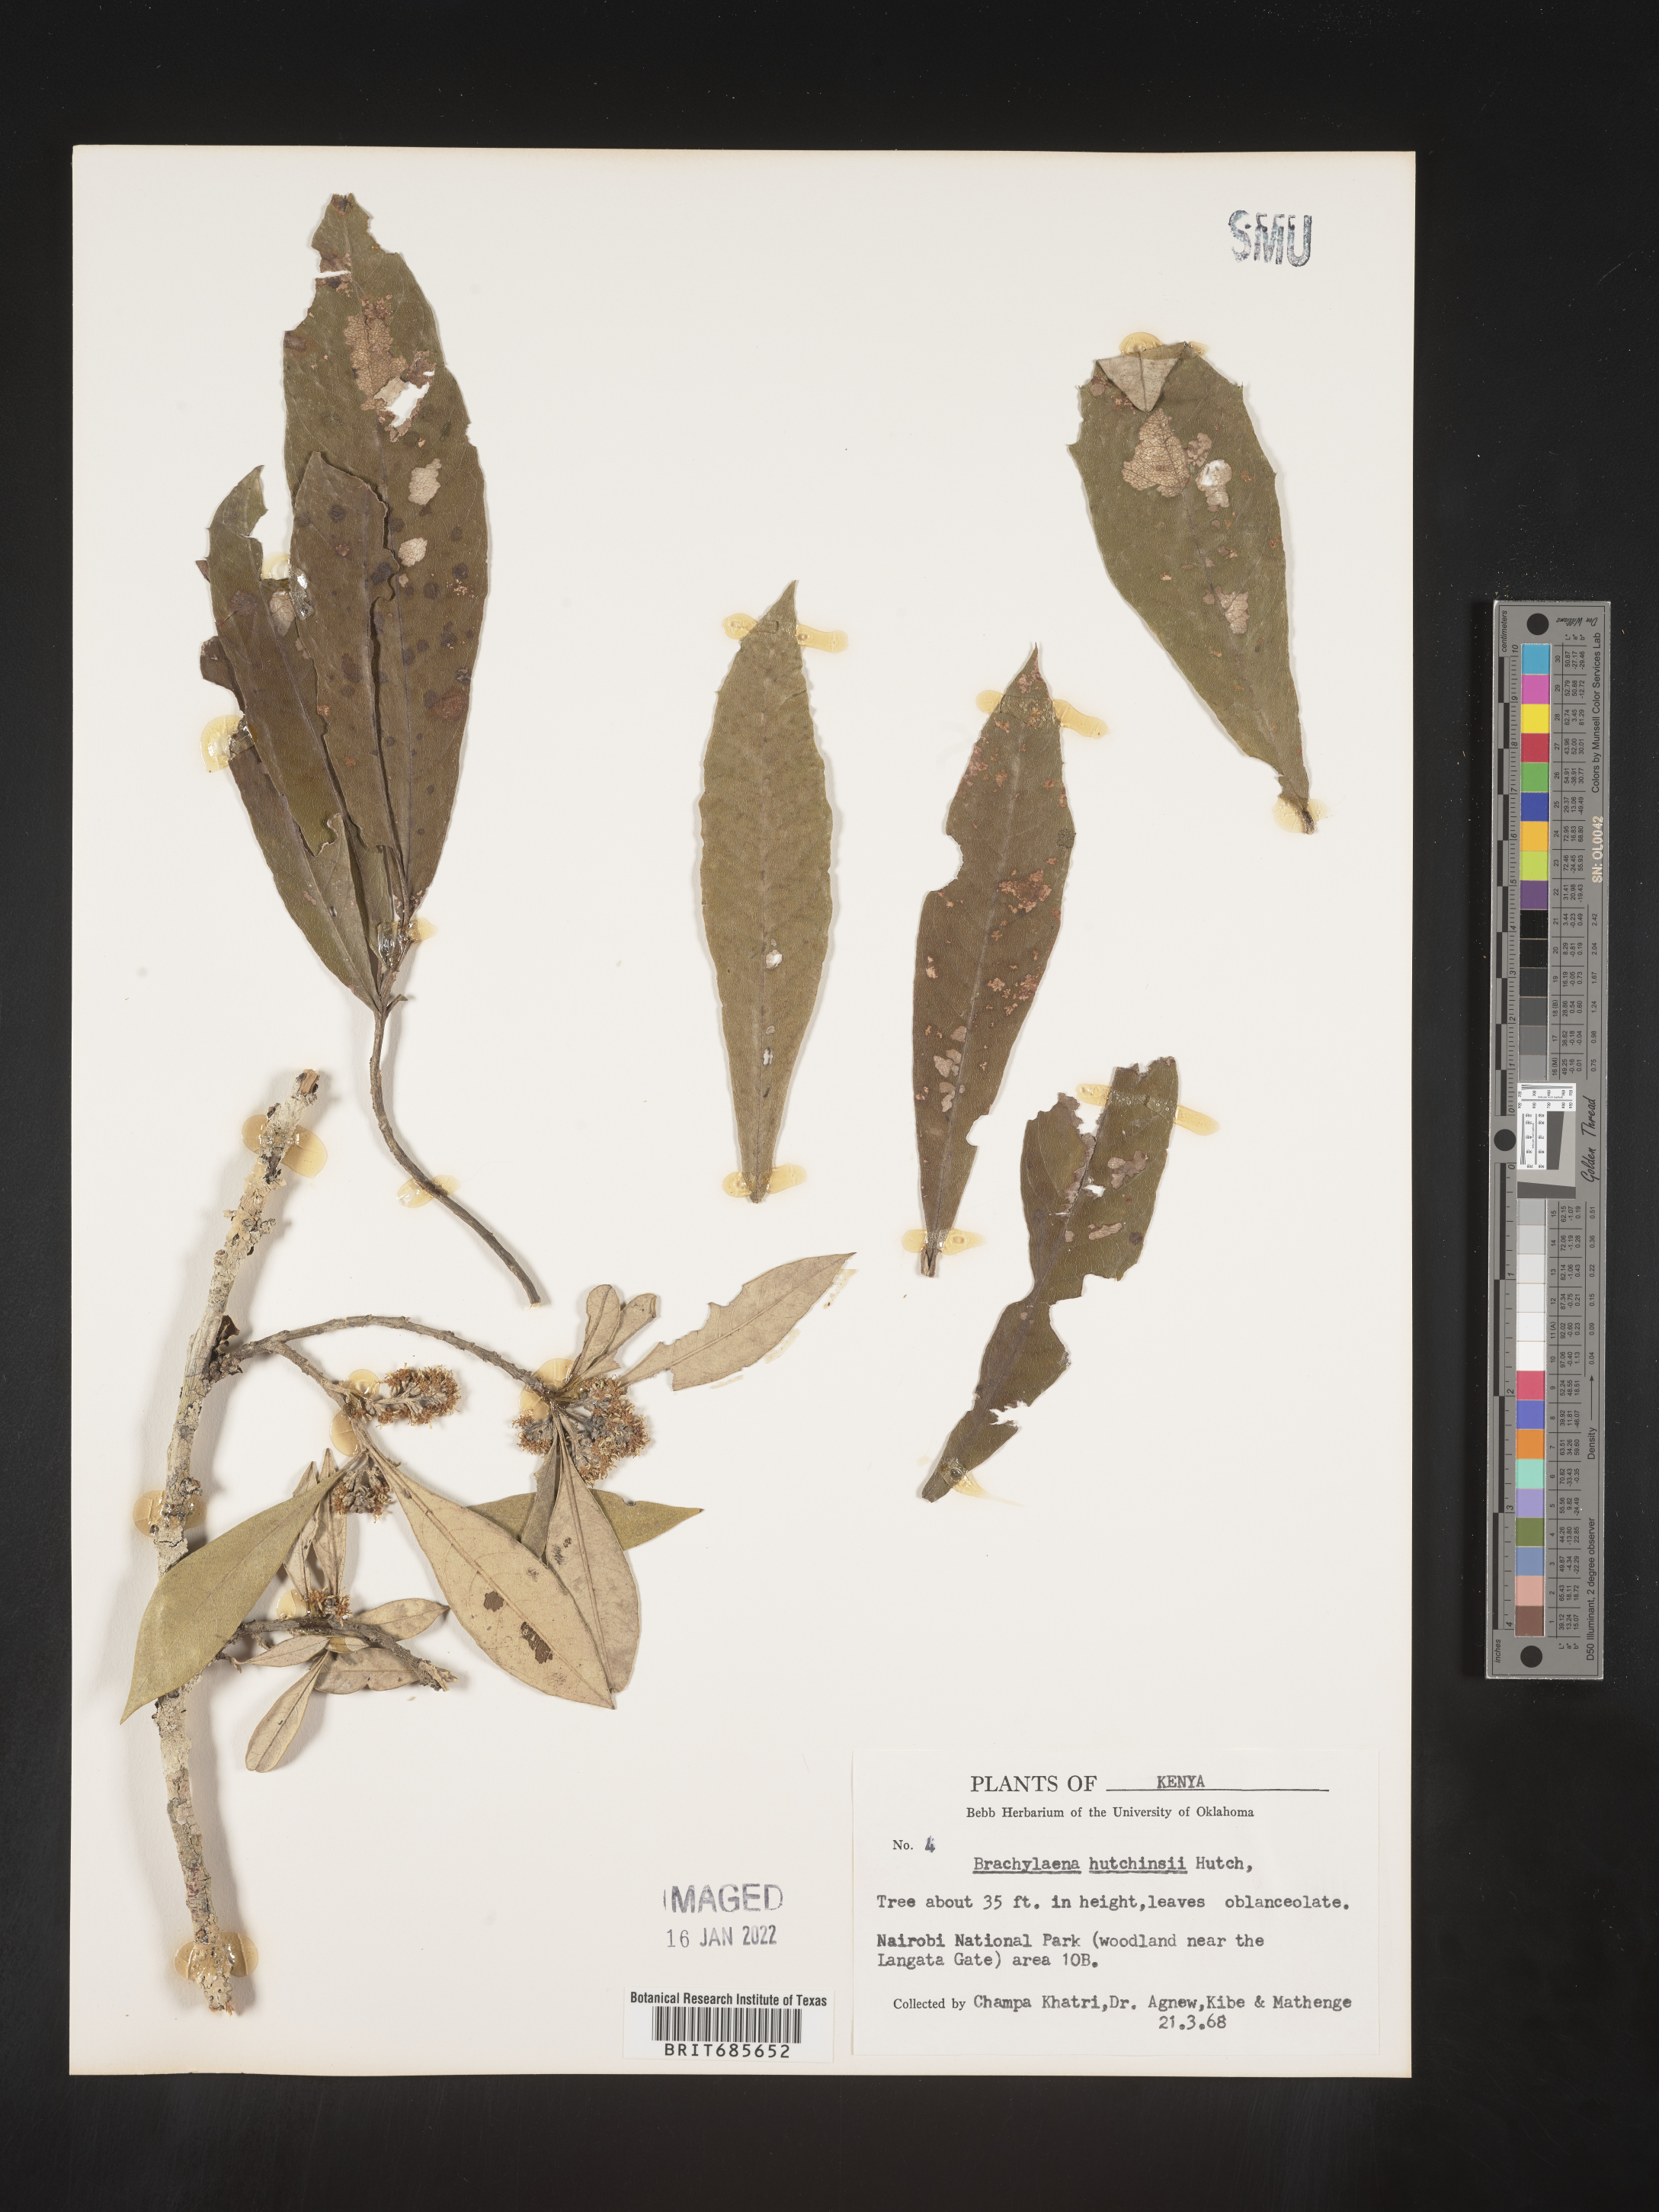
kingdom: Plantae
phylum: Tracheophyta
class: Magnoliopsida
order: Asterales
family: Asteraceae
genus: Brachylaena
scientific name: Brachylaena
